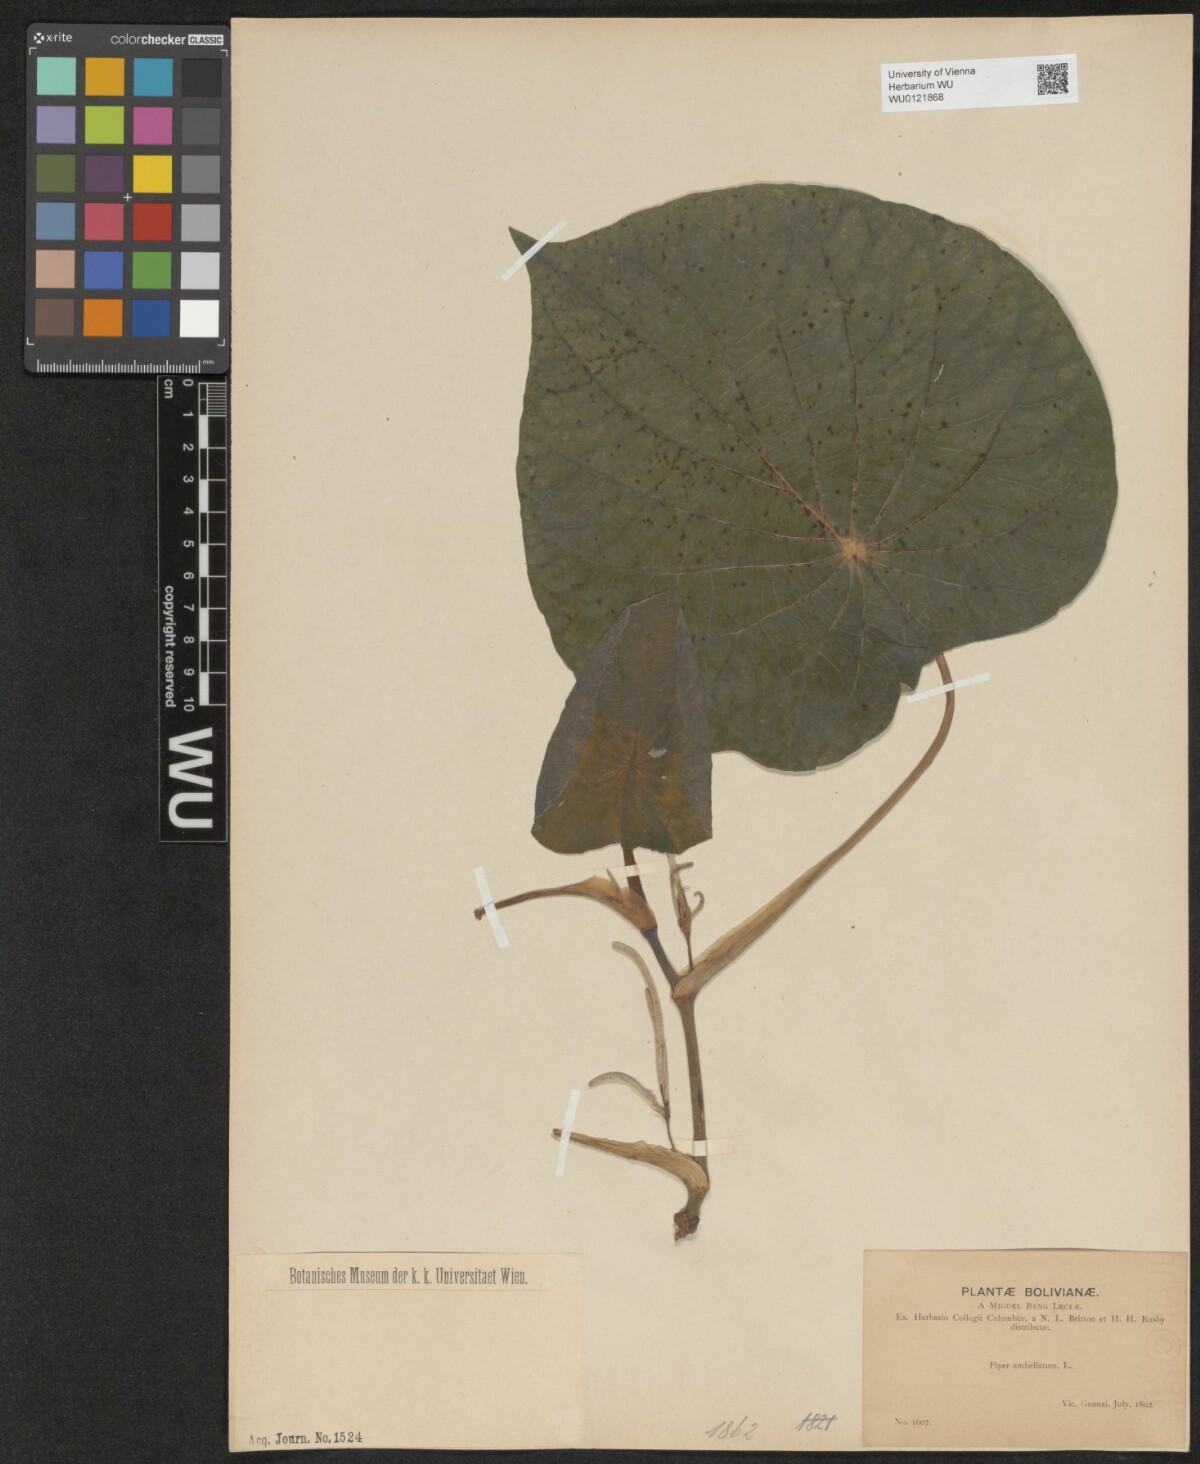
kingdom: Plantae
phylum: Tracheophyta
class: Magnoliopsida
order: Piperales
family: Piperaceae
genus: Piper
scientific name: Piper umbellatum
